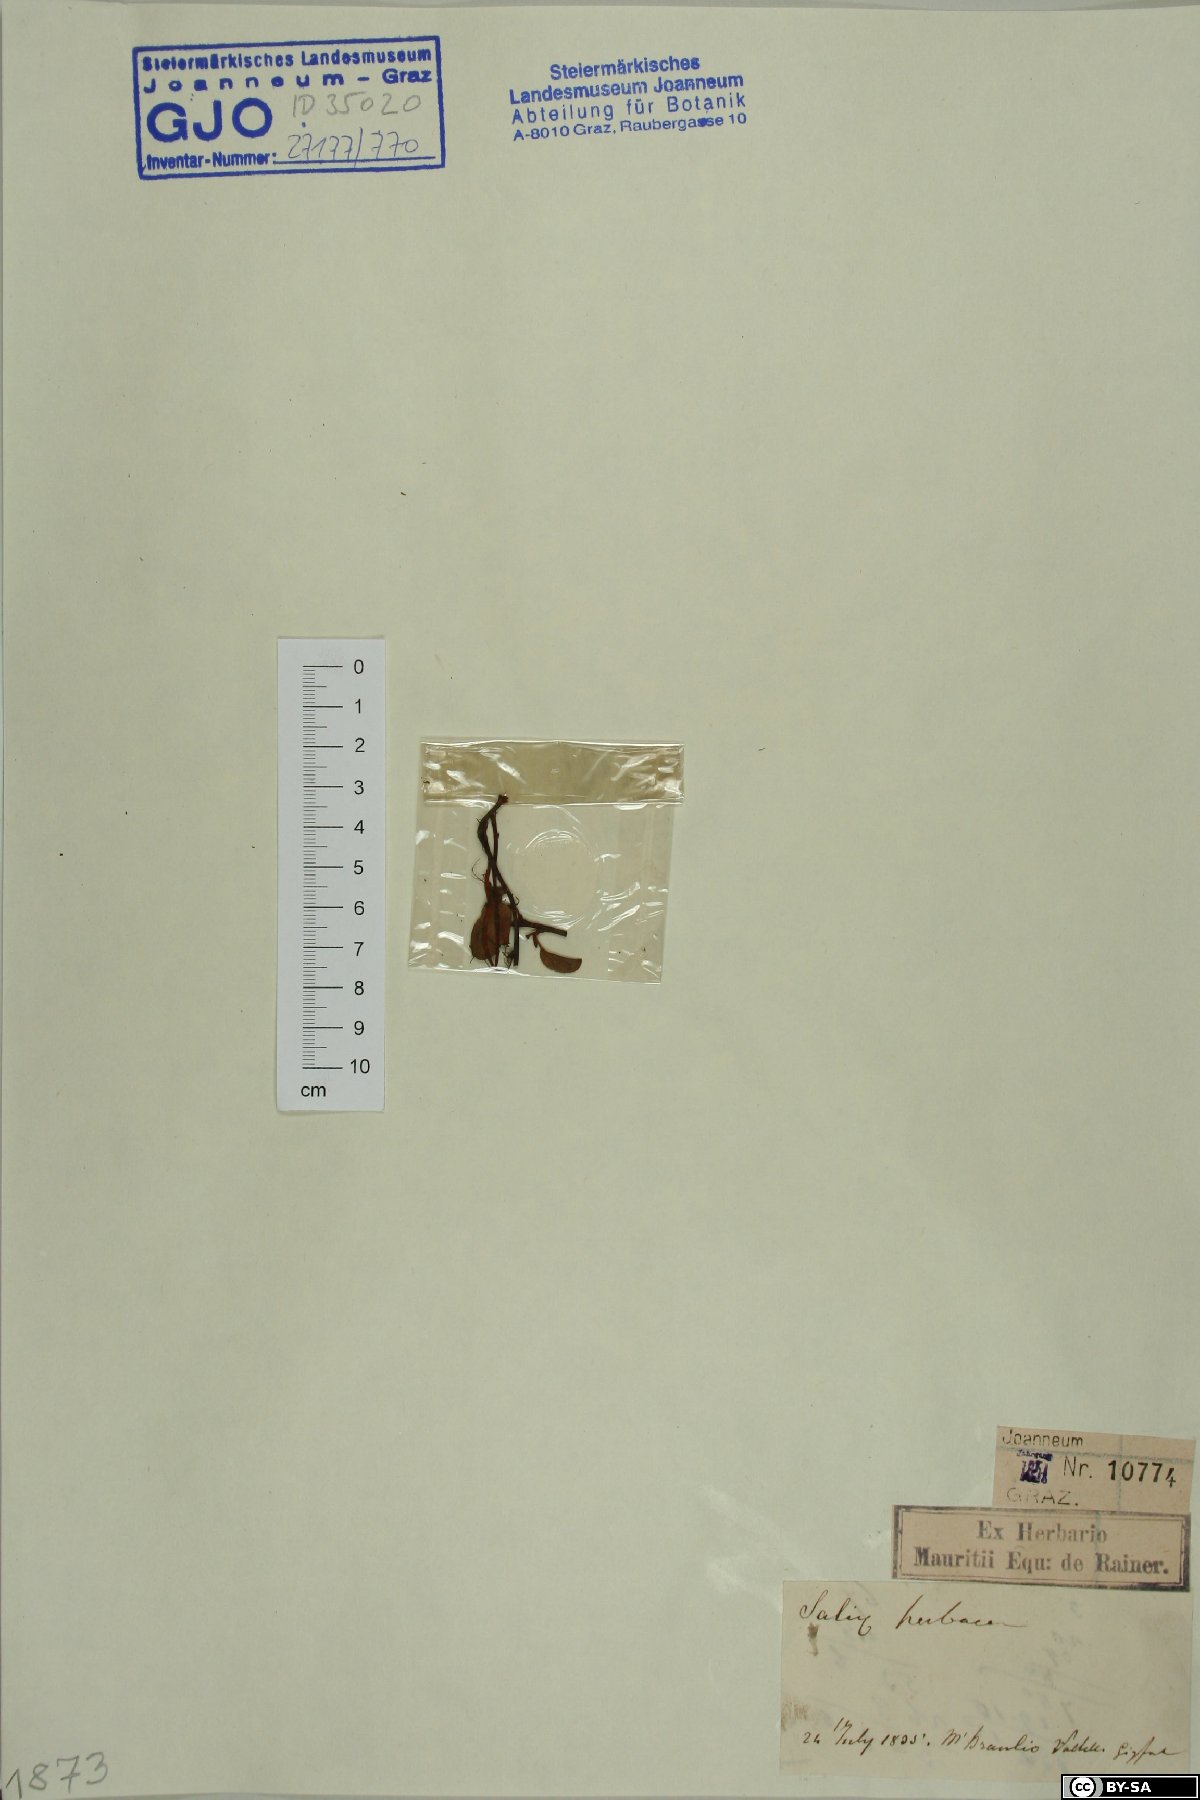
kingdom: Plantae
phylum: Tracheophyta
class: Magnoliopsida
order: Malpighiales
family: Salicaceae
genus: Salix
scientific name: Salix herbacea
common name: Dwarf willow
